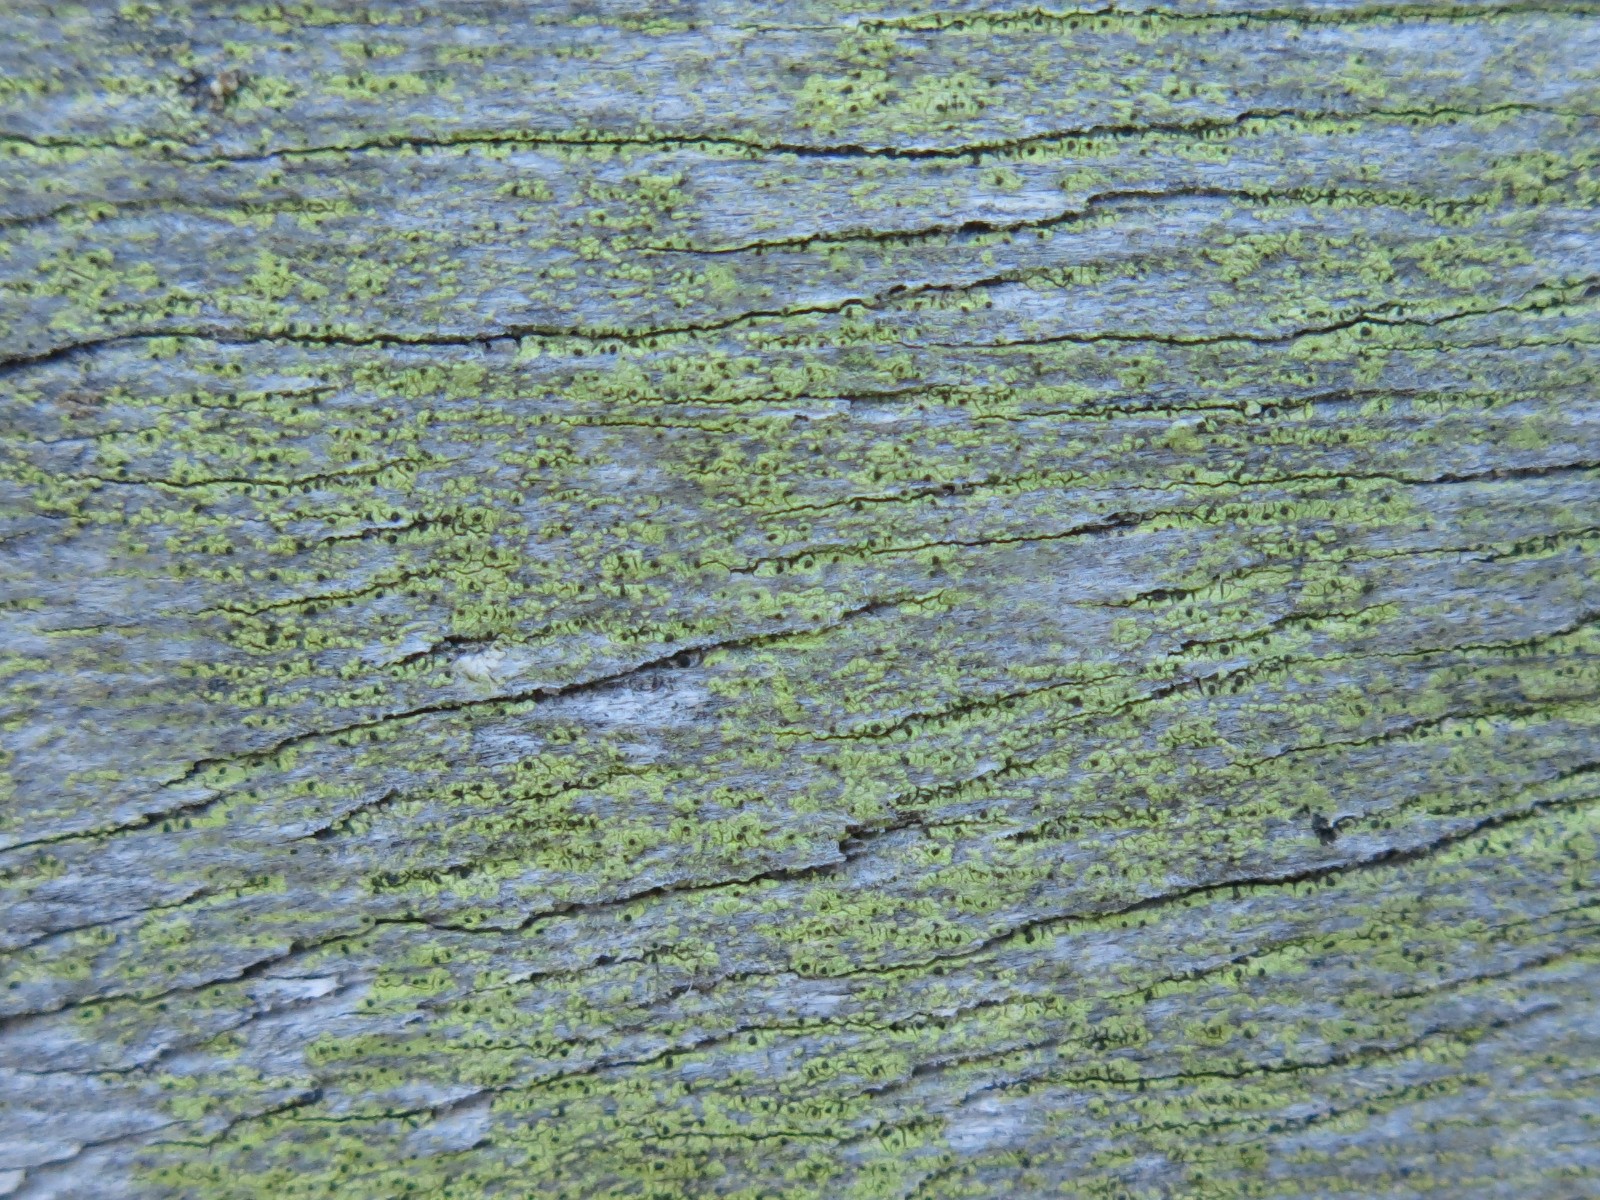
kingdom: Fungi
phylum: Ascomycota
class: Lecanoromycetes
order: Caliciales
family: Caliciaceae
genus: Calicium
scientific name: Calicium notarisii
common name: gulgrøn sodlav
